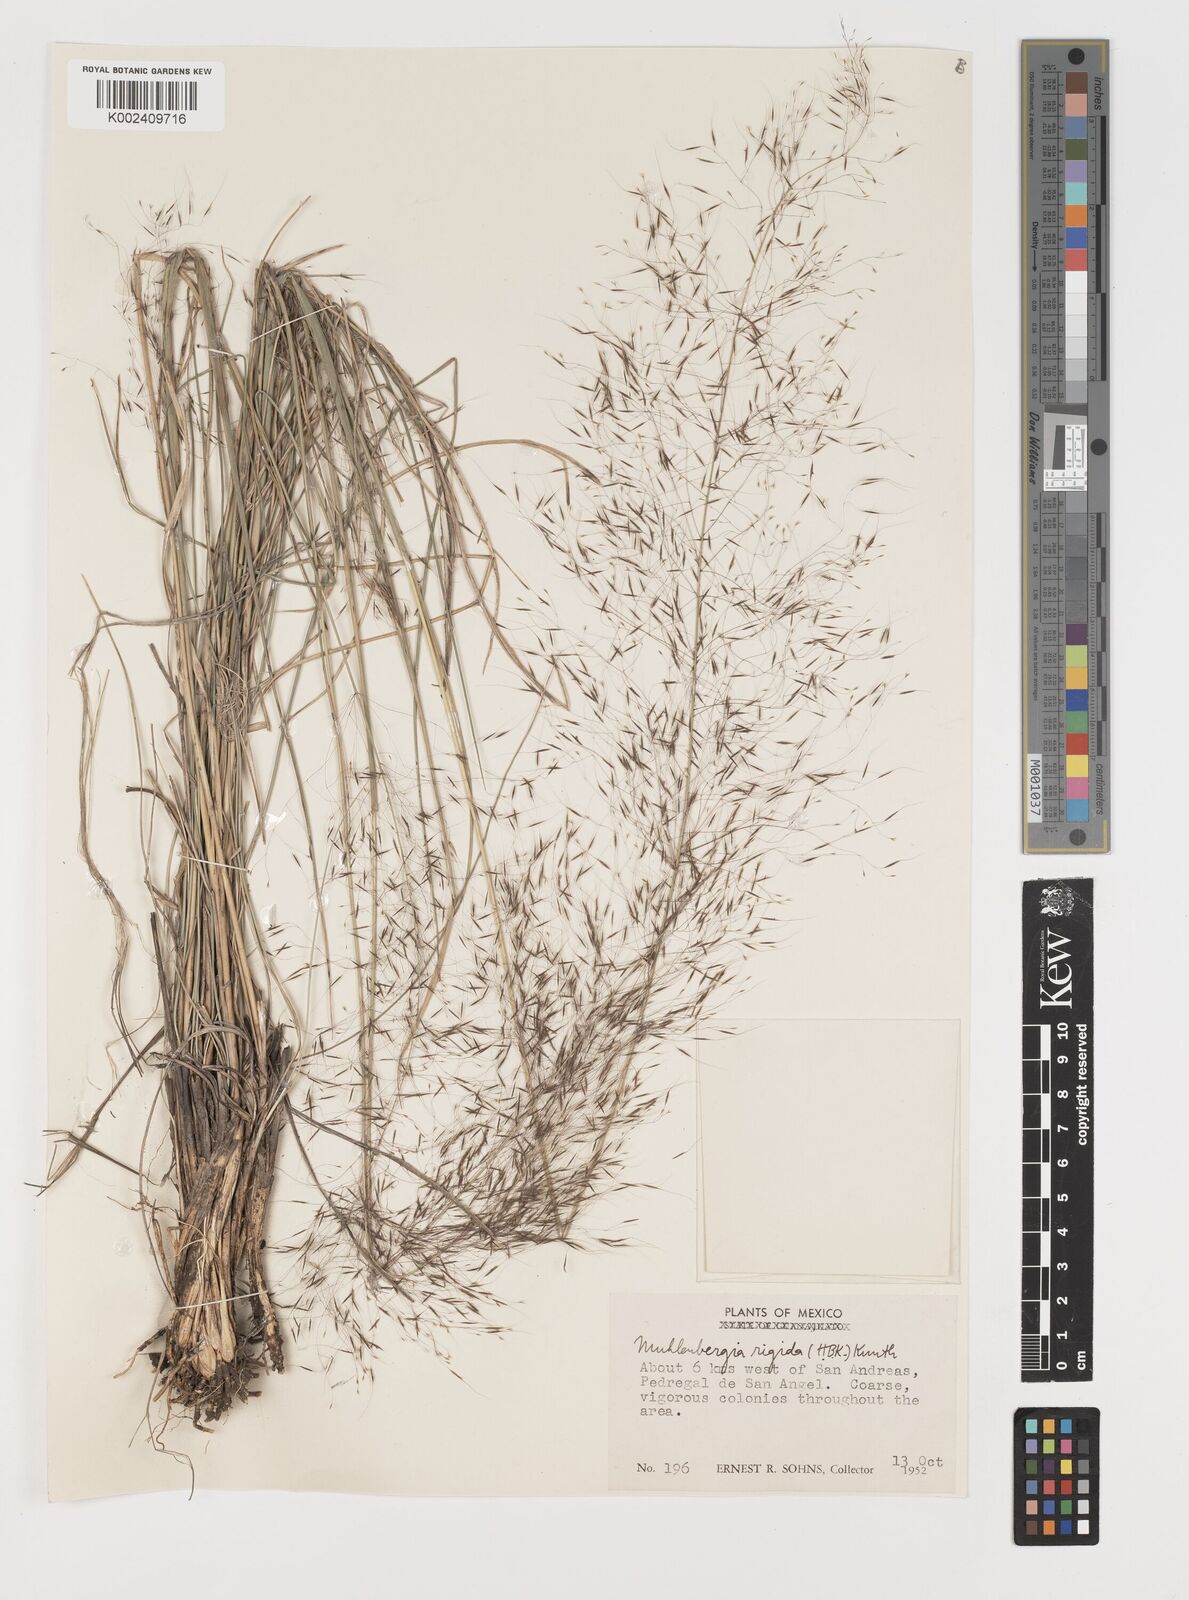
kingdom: Plantae
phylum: Tracheophyta
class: Liliopsida
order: Poales
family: Poaceae
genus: Muhlenbergia
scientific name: Muhlenbergia rigida
